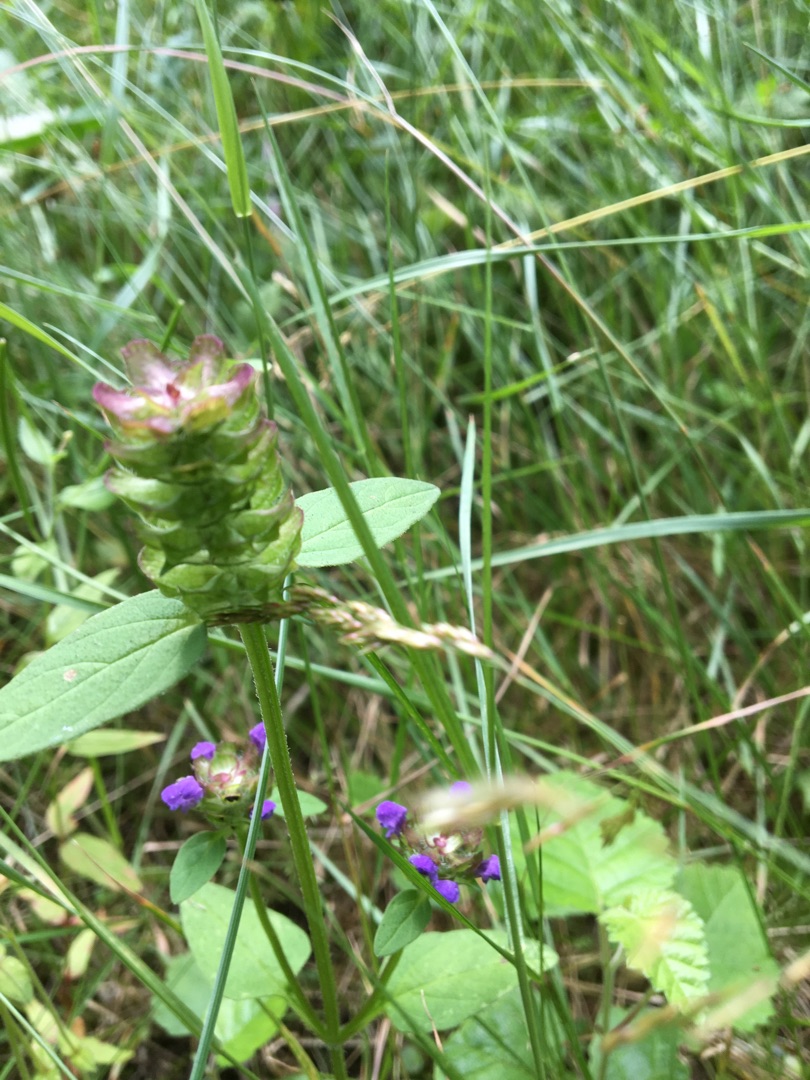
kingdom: Plantae
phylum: Tracheophyta
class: Magnoliopsida
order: Lamiales
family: Lamiaceae
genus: Prunella
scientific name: Prunella vulgaris
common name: Almindelig brunelle
